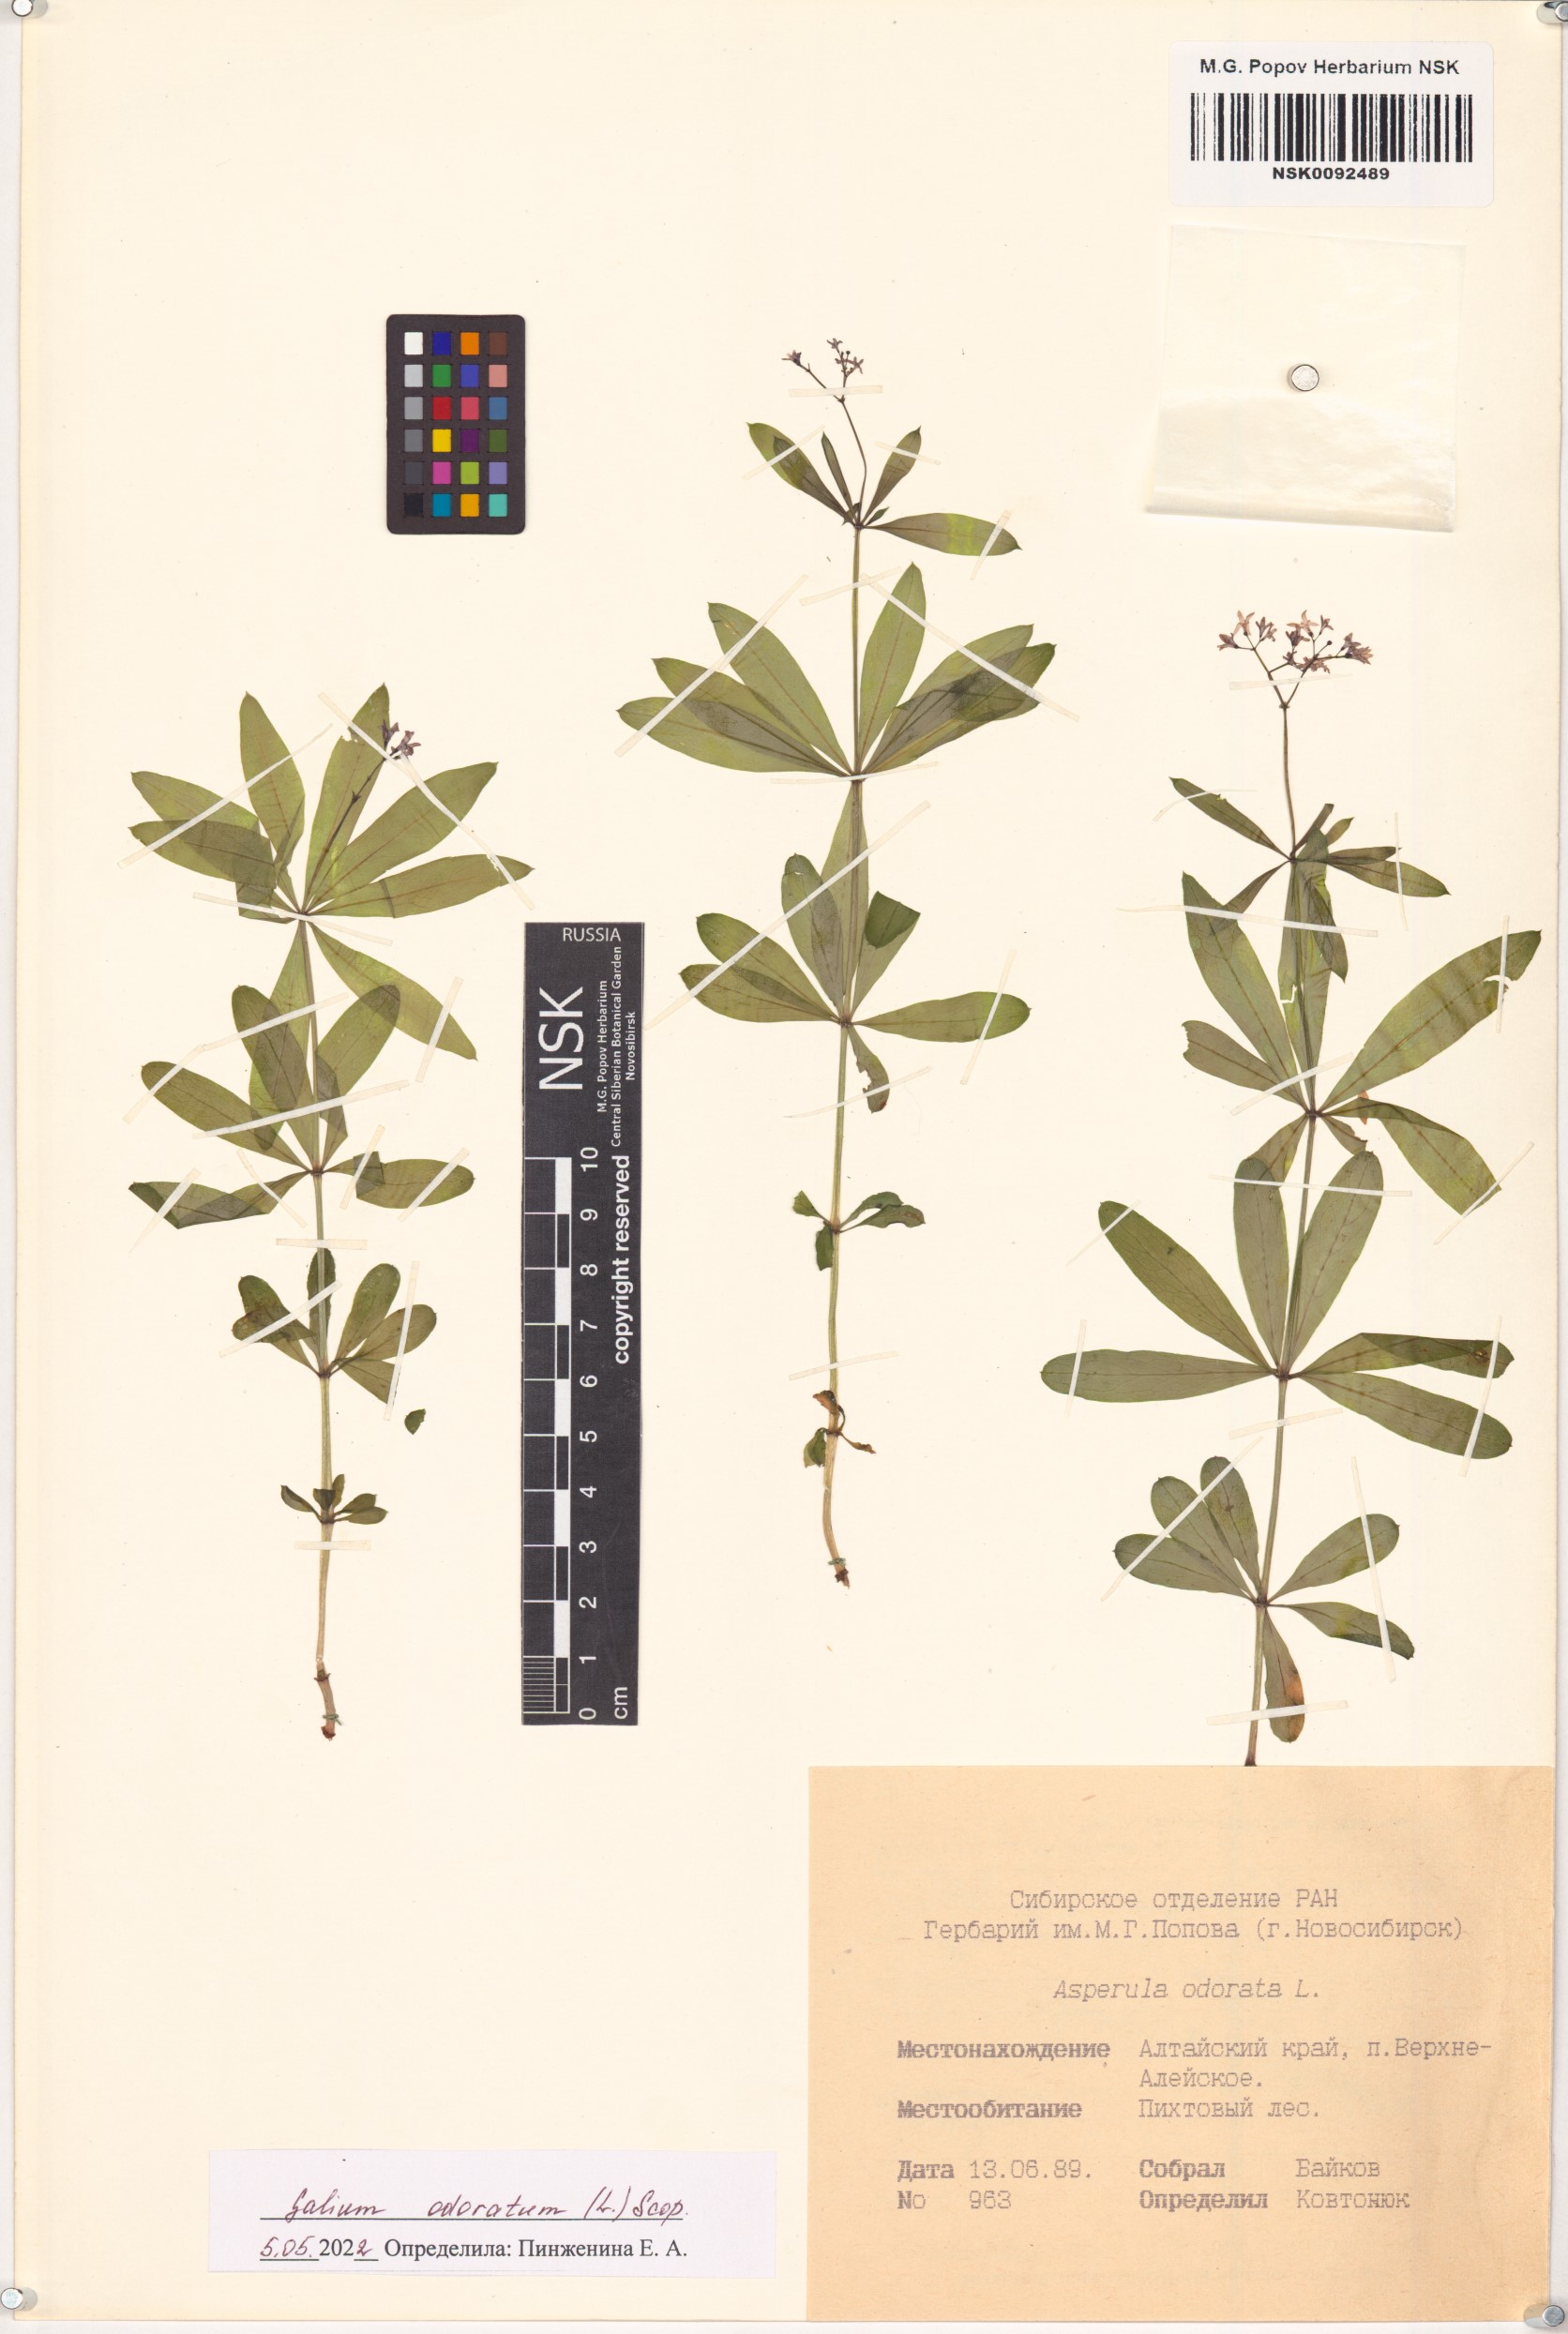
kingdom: Plantae
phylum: Tracheophyta
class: Magnoliopsida
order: Gentianales
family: Rubiaceae
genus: Galium
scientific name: Galium odoratum
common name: Sweet woodruff
